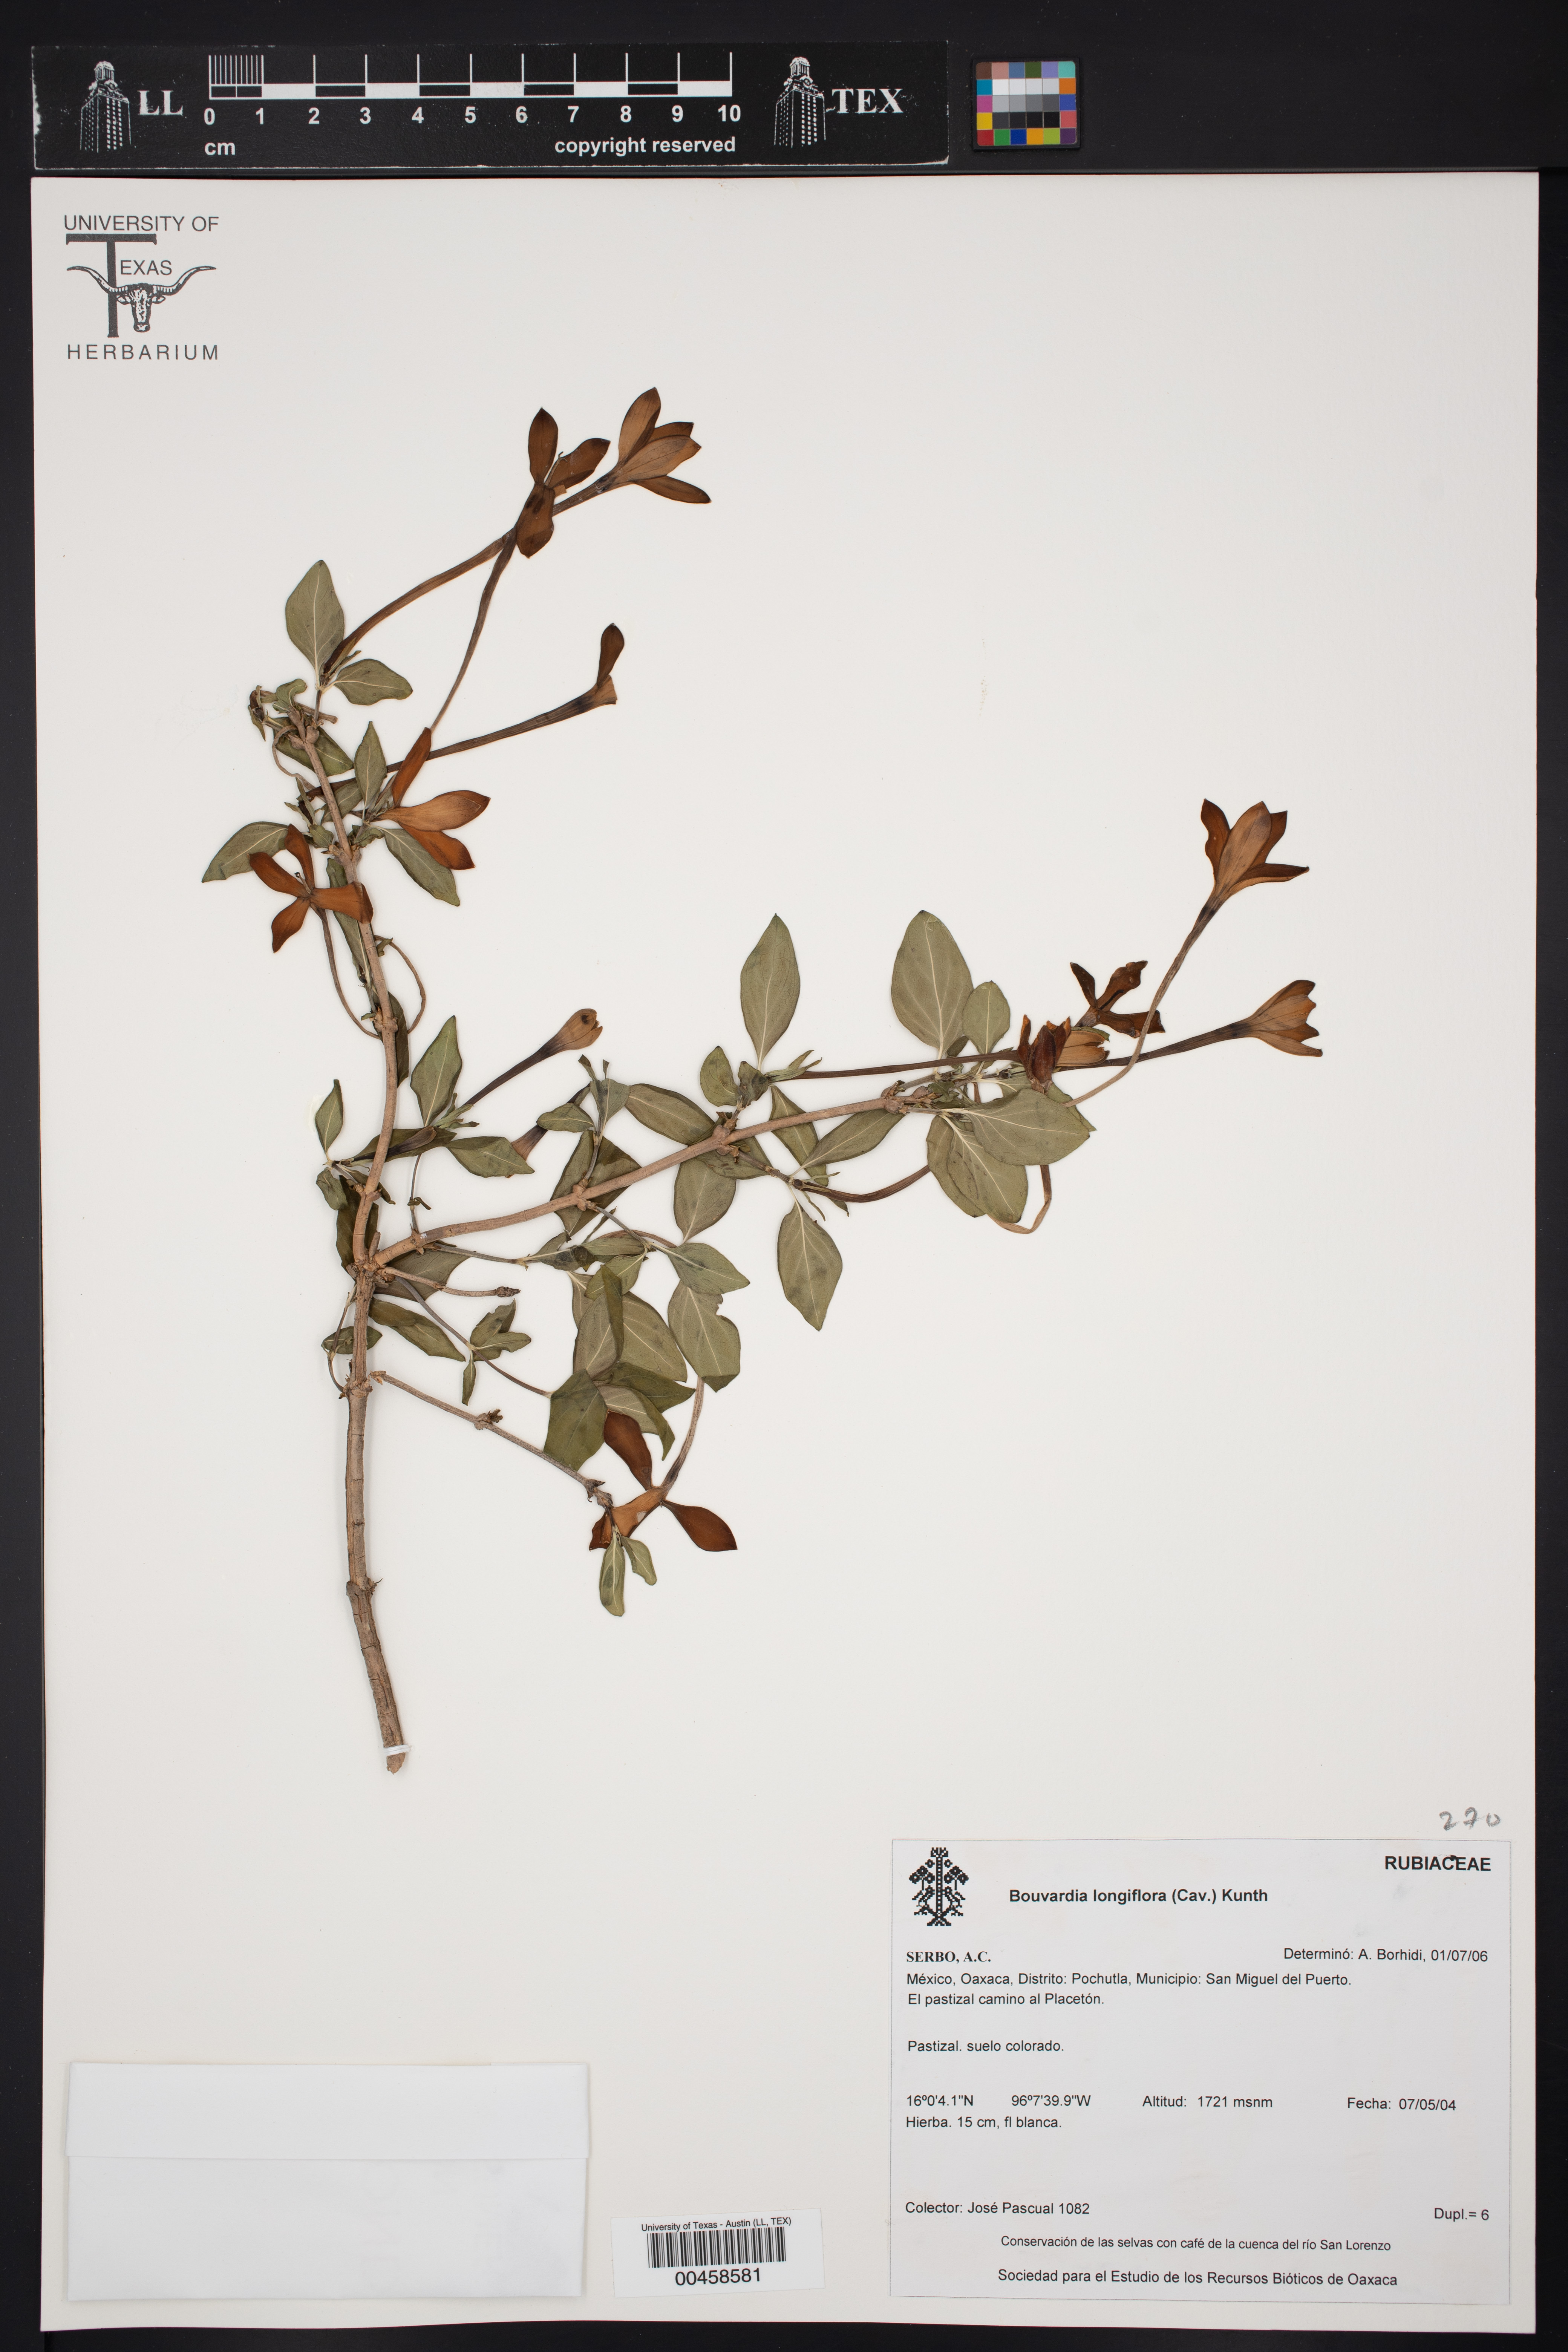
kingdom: Plantae
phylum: Tracheophyta
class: Magnoliopsida
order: Gentianales
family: Rubiaceae
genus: Bouvardia
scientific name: Bouvardia longiflora
